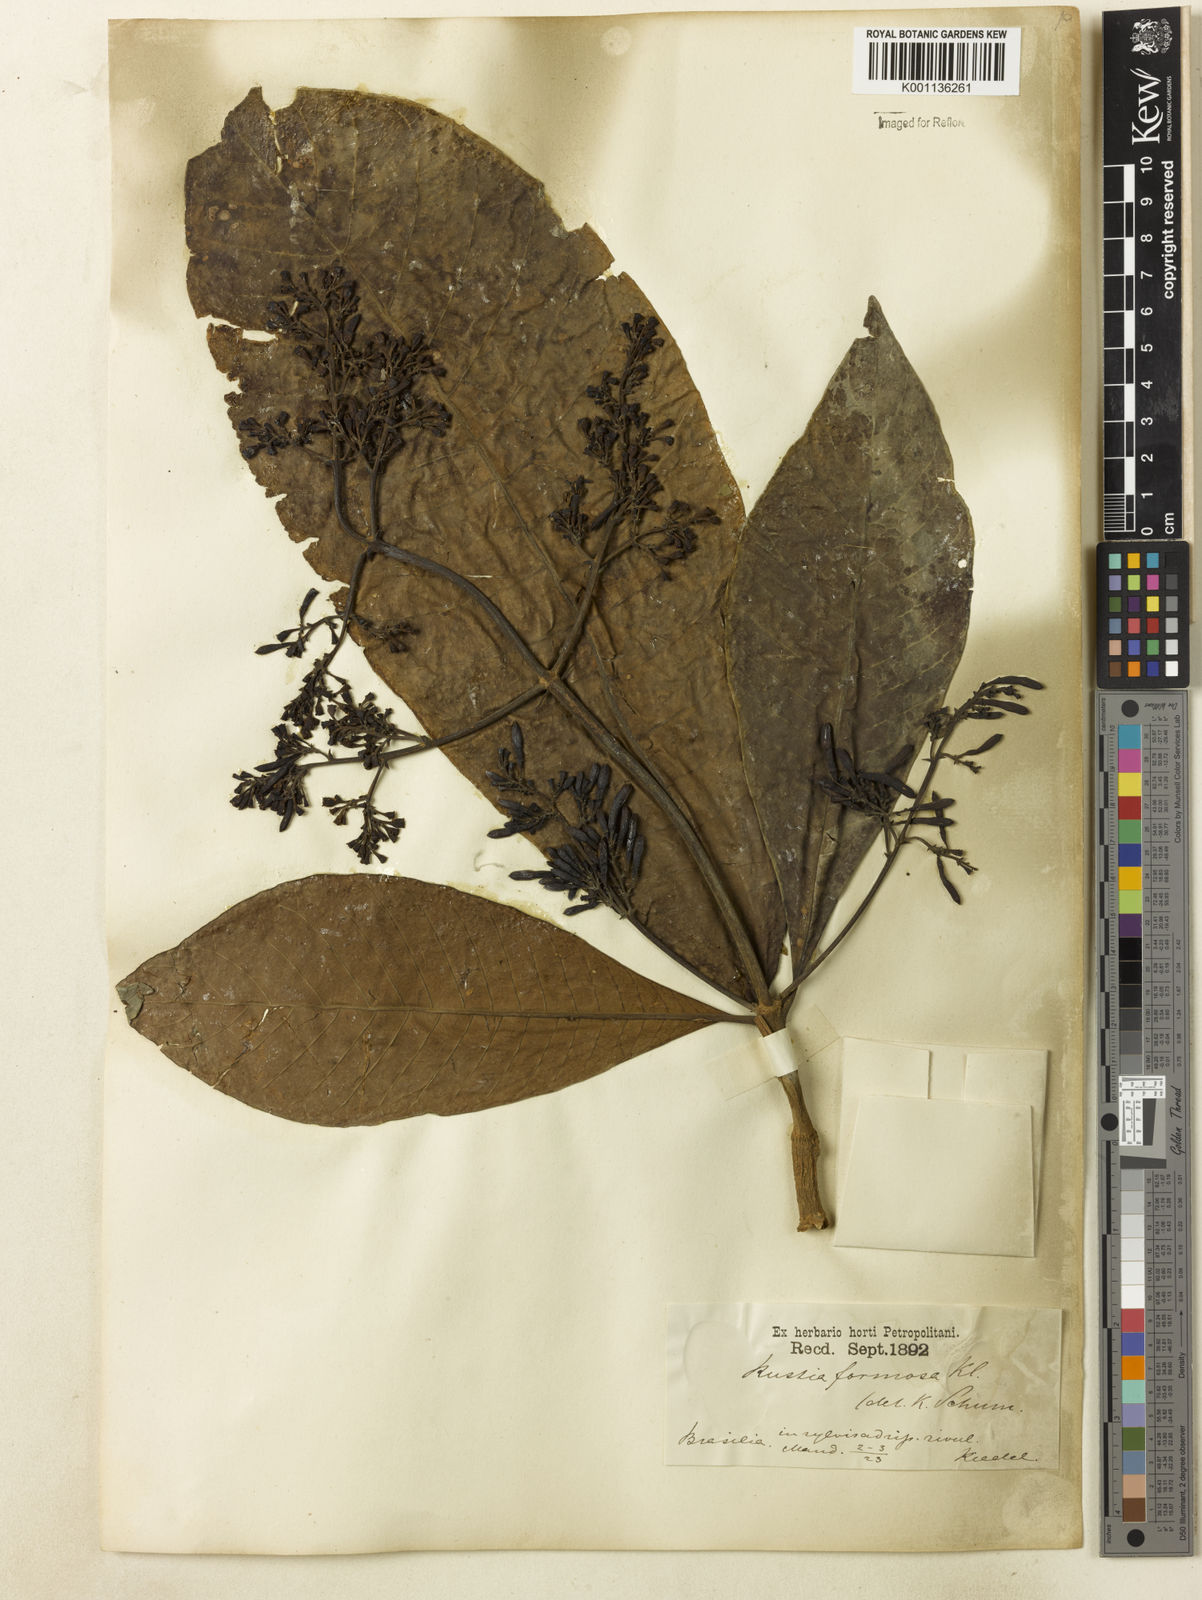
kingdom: Plantae
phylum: Tracheophyta
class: Magnoliopsida
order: Gentianales
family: Rubiaceae
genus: Rustia
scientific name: Rustia formosa
